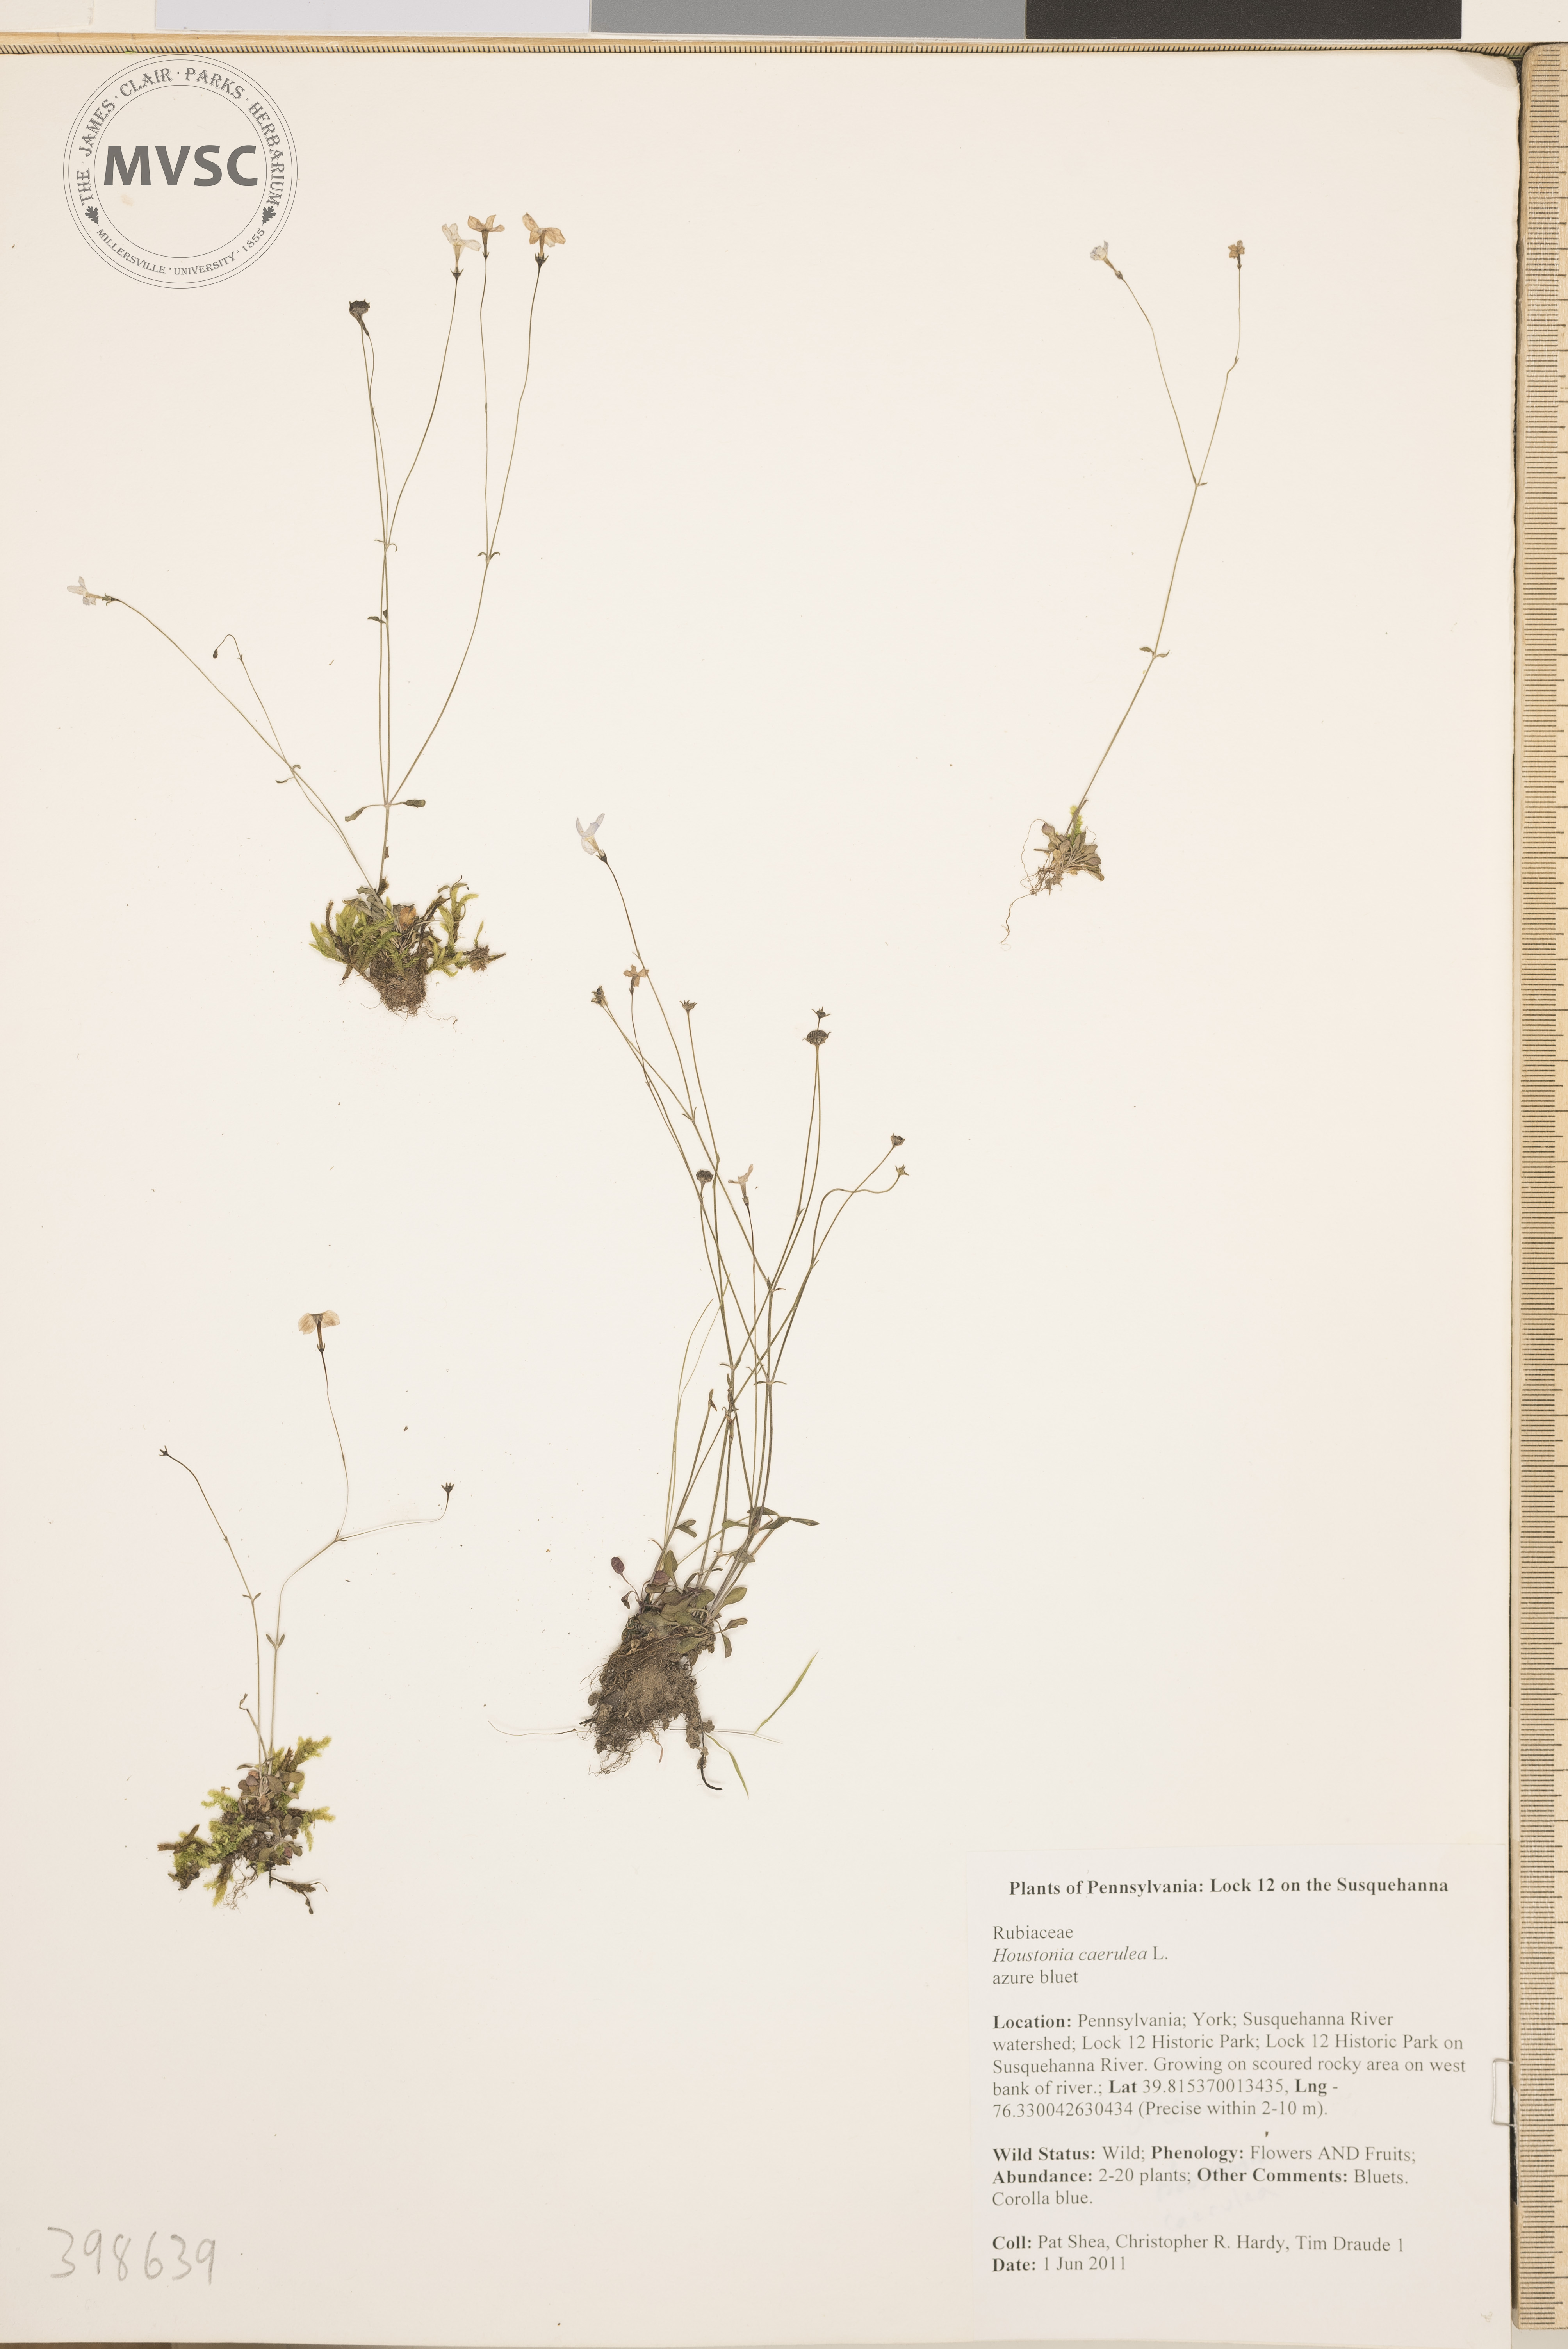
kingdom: Plantae
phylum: Tracheophyta
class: Magnoliopsida
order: Gentianales
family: Rubiaceae
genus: Houstonia
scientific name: Houstonia caerulea
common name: Bluets
